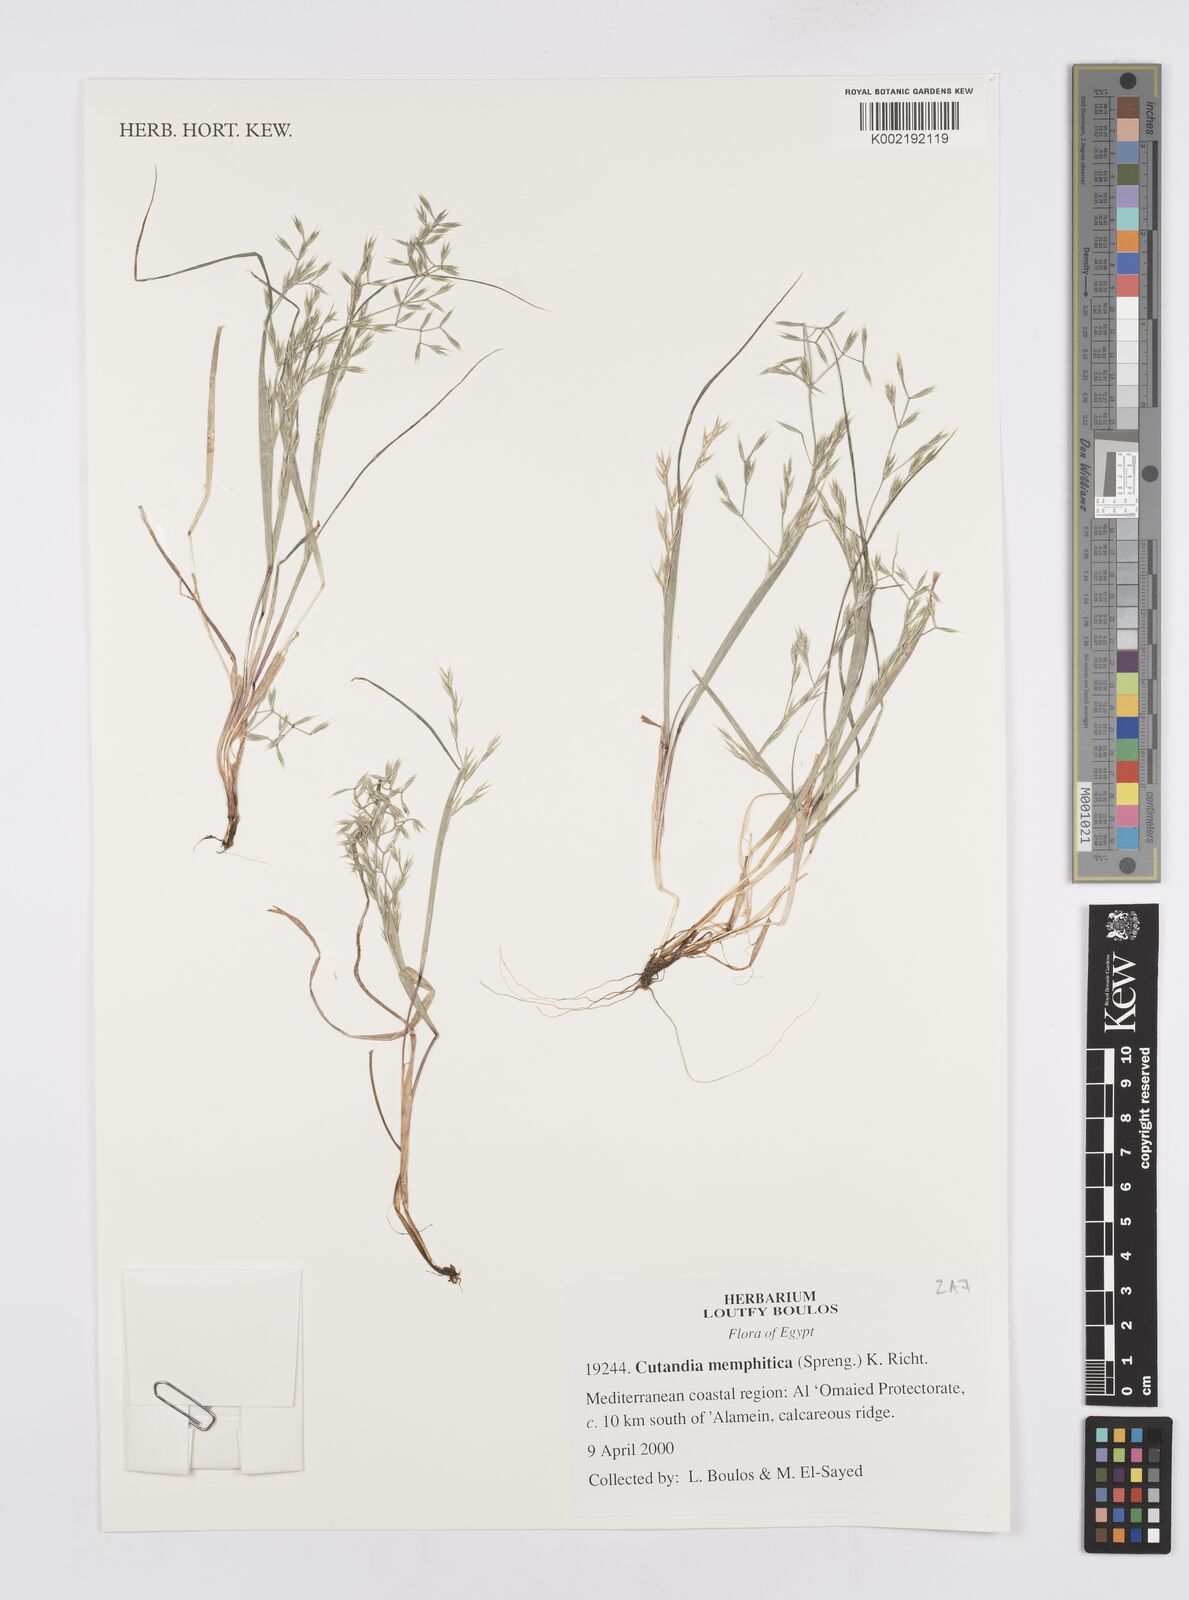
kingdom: Plantae
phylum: Tracheophyta
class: Liliopsida
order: Poales
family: Poaceae
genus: Cutandia
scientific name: Cutandia memphitica
